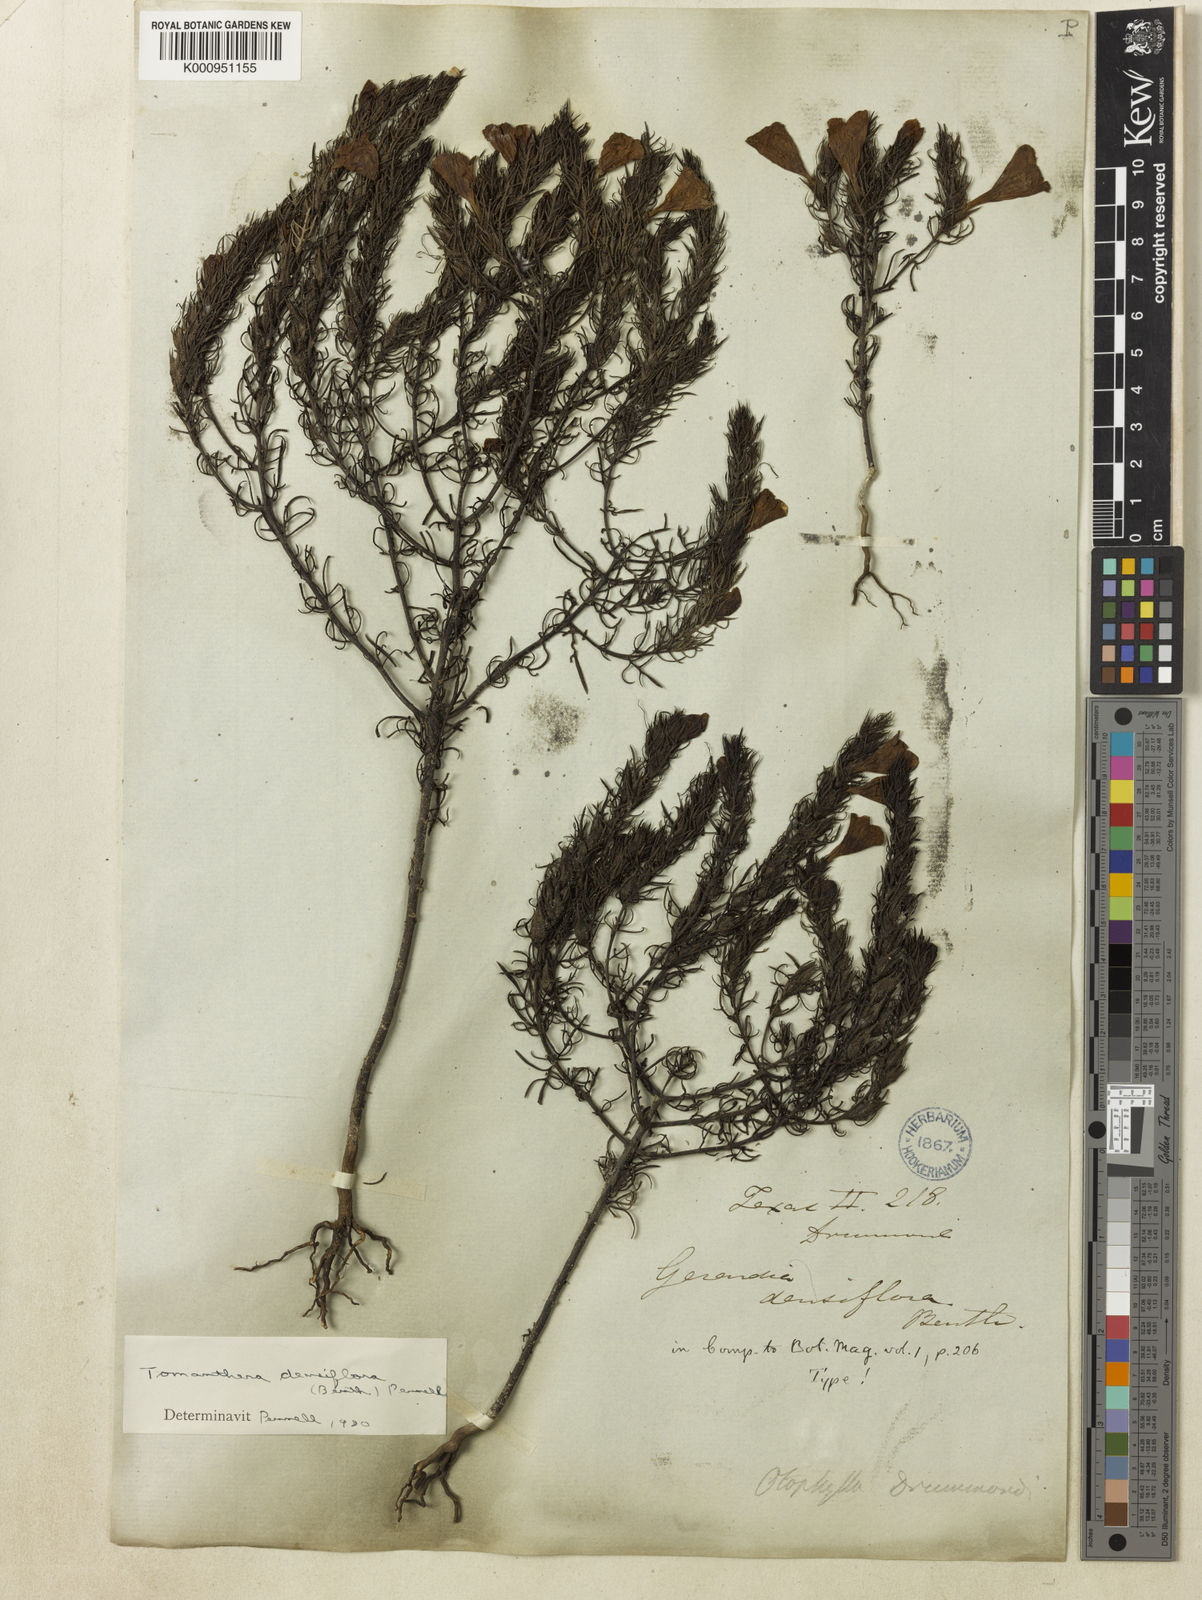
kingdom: Plantae
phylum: Tracheophyta
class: Magnoliopsida
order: Lamiales
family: Orobanchaceae
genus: Agalinis
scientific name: Agalinis densiflora
